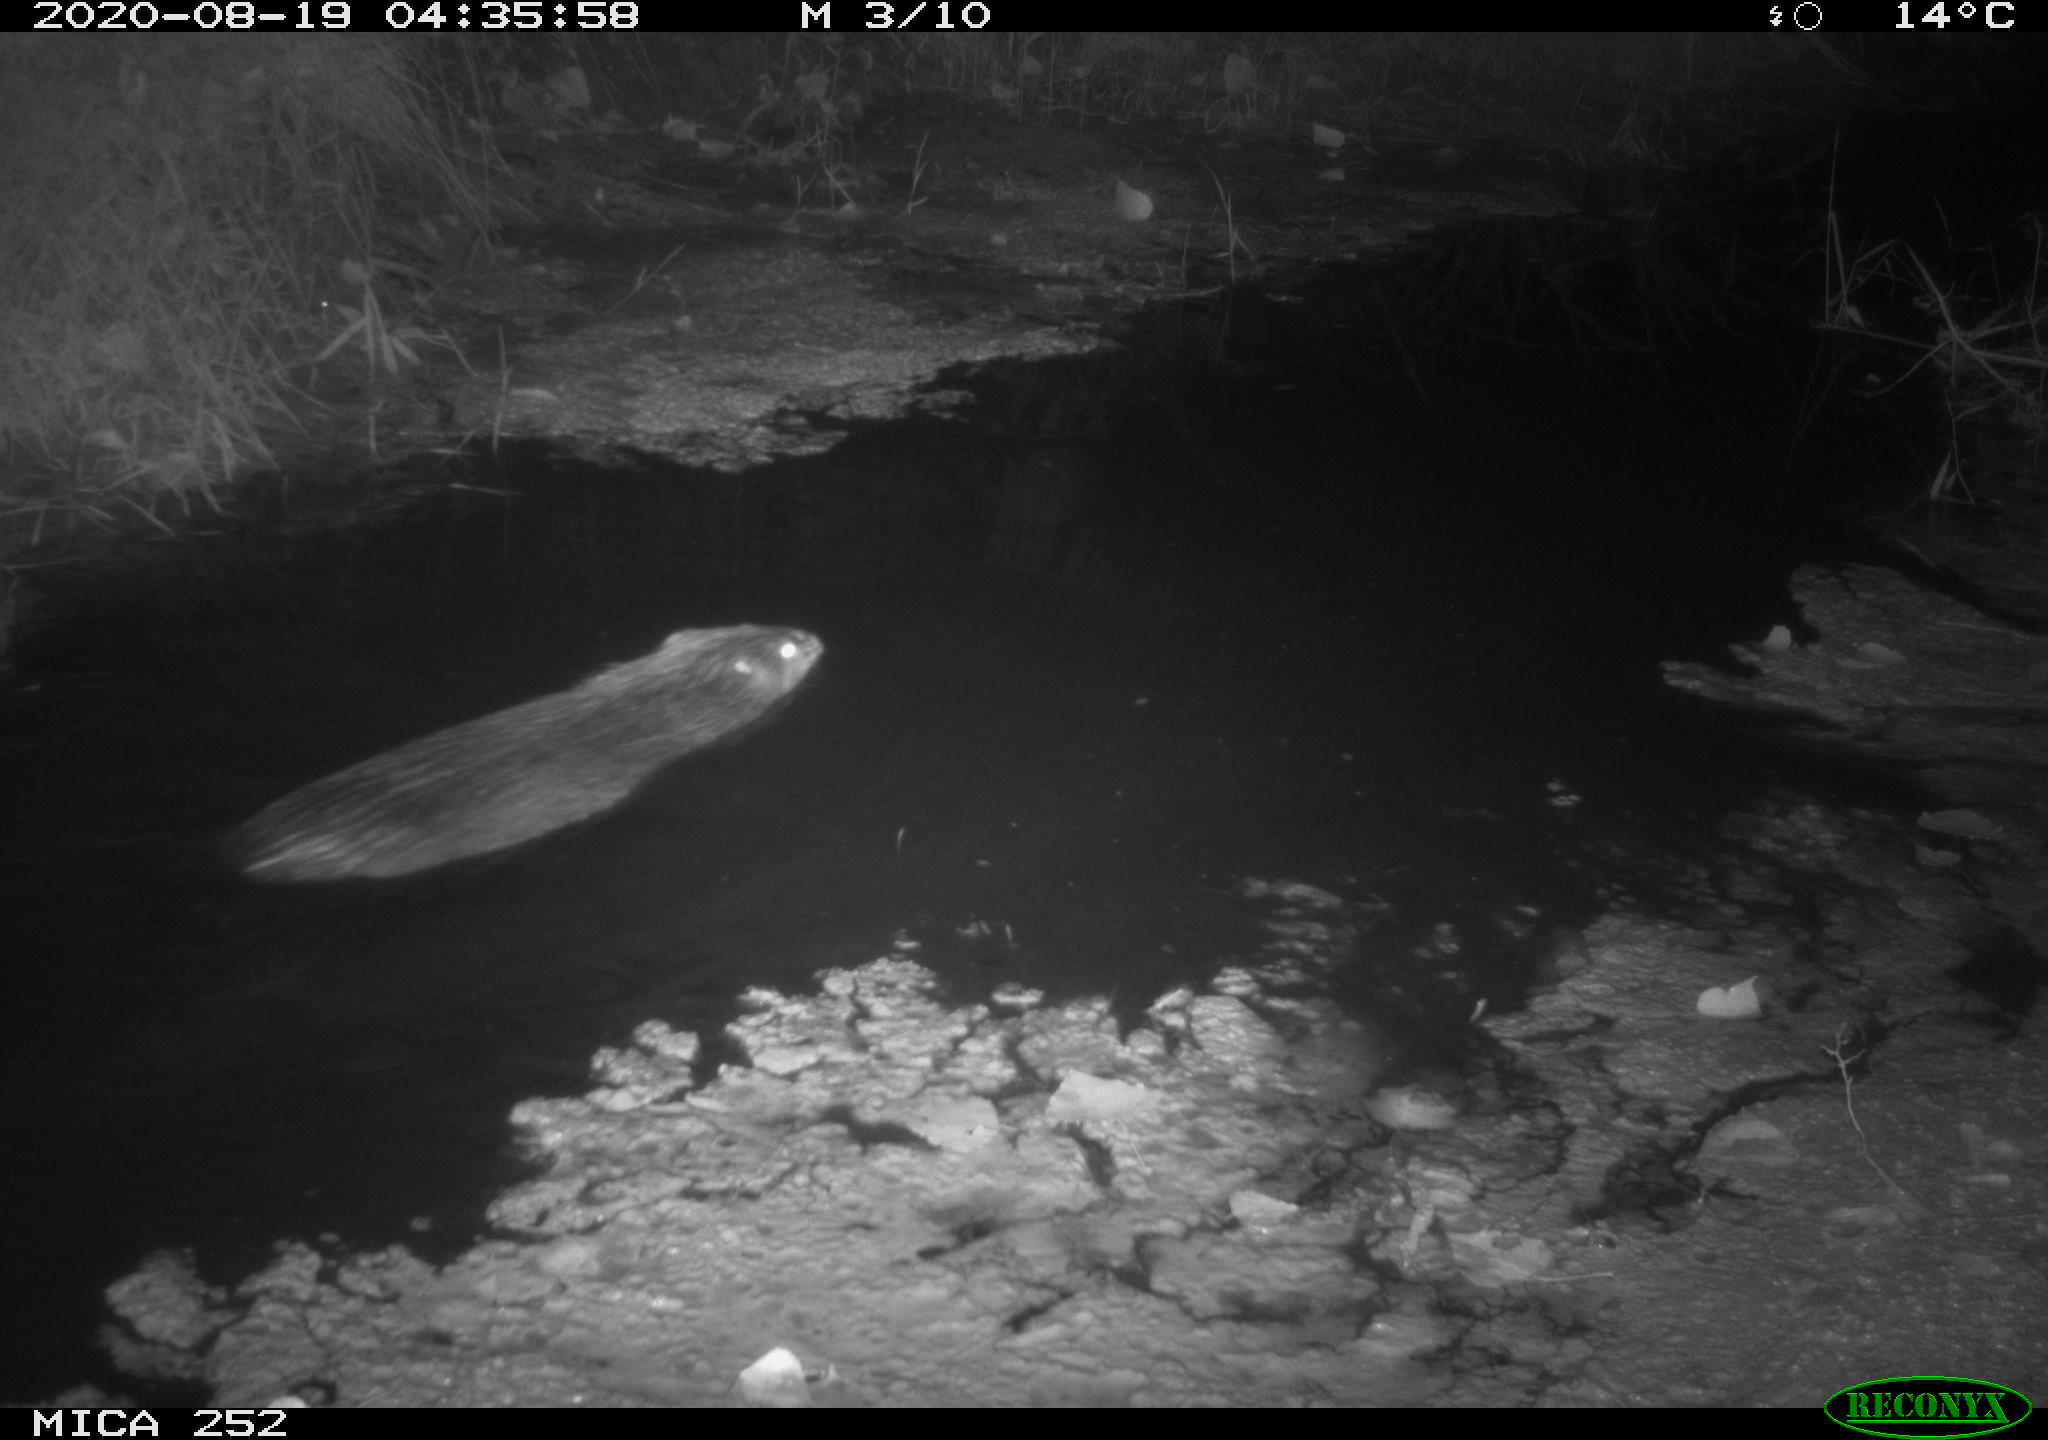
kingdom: Animalia
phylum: Chordata
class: Mammalia
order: Rodentia
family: Castoridae
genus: Castor
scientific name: Castor fiber
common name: Eurasian beaver
